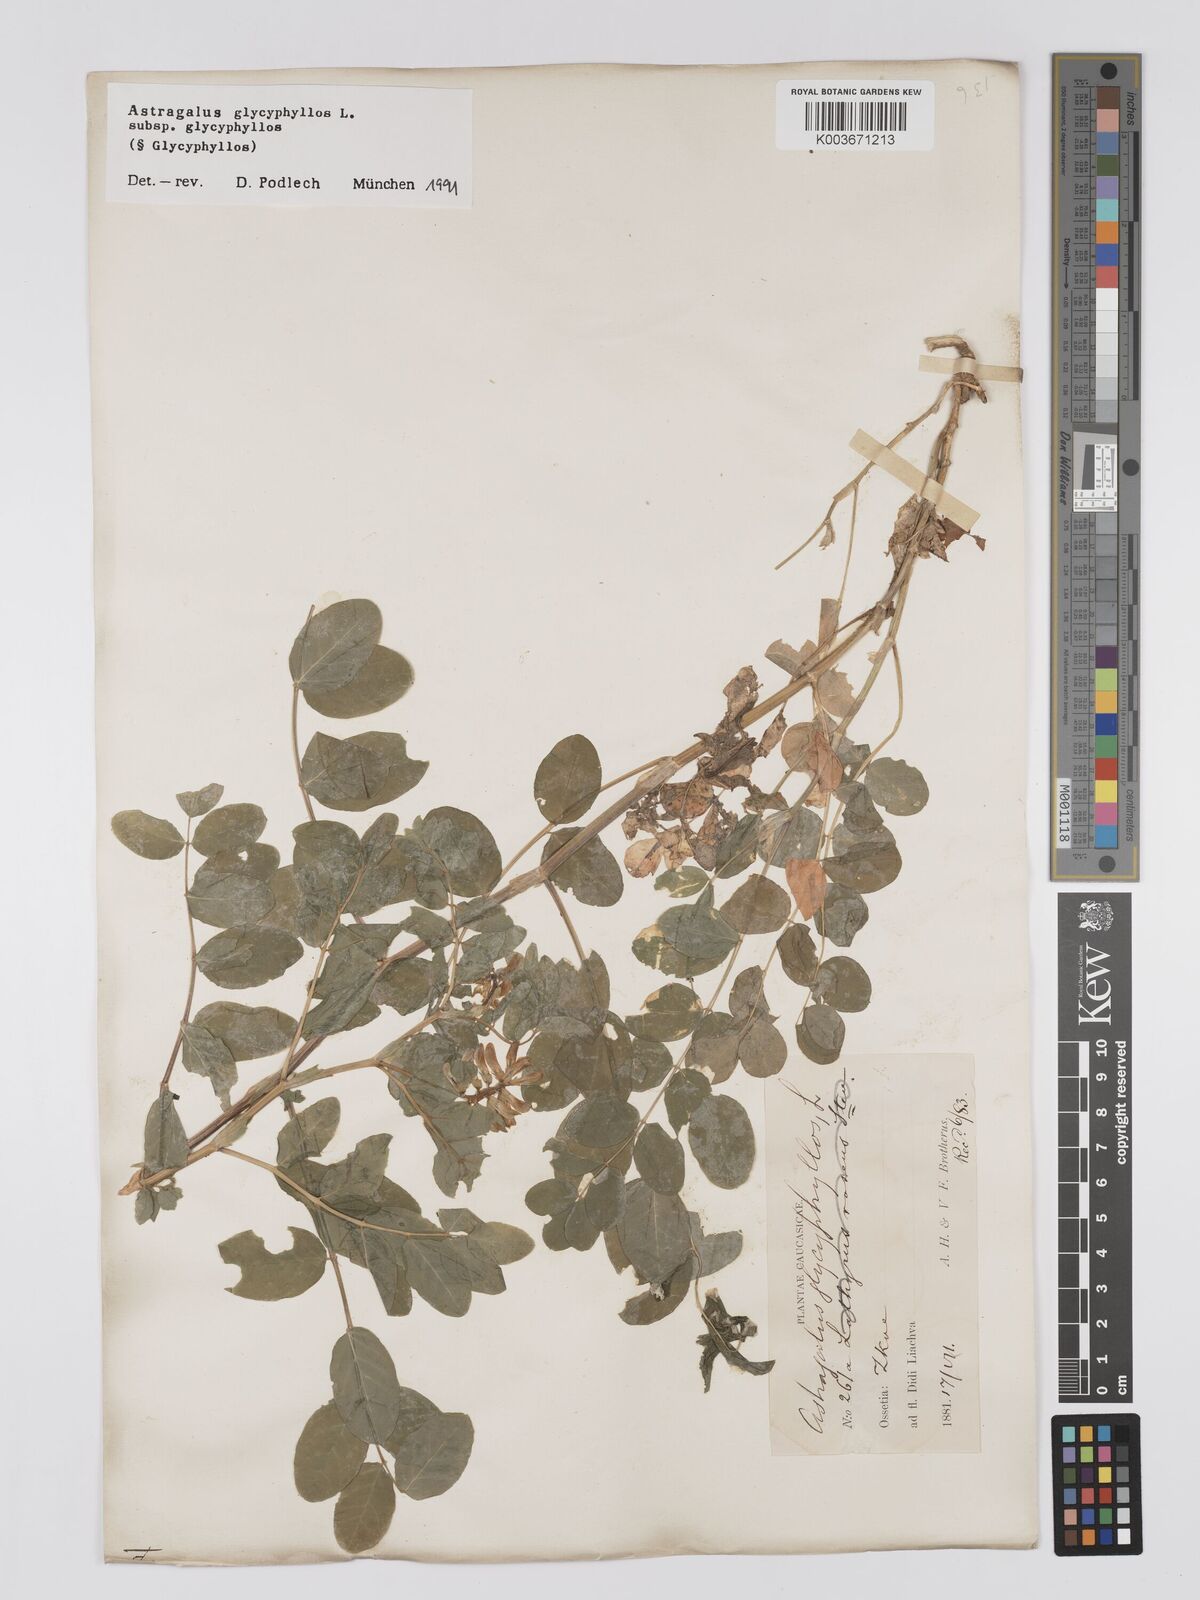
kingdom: Plantae
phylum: Tracheophyta
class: Magnoliopsida
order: Fabales
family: Fabaceae
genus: Astragalus
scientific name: Astragalus glycyphyllos
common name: Wild liquorice
